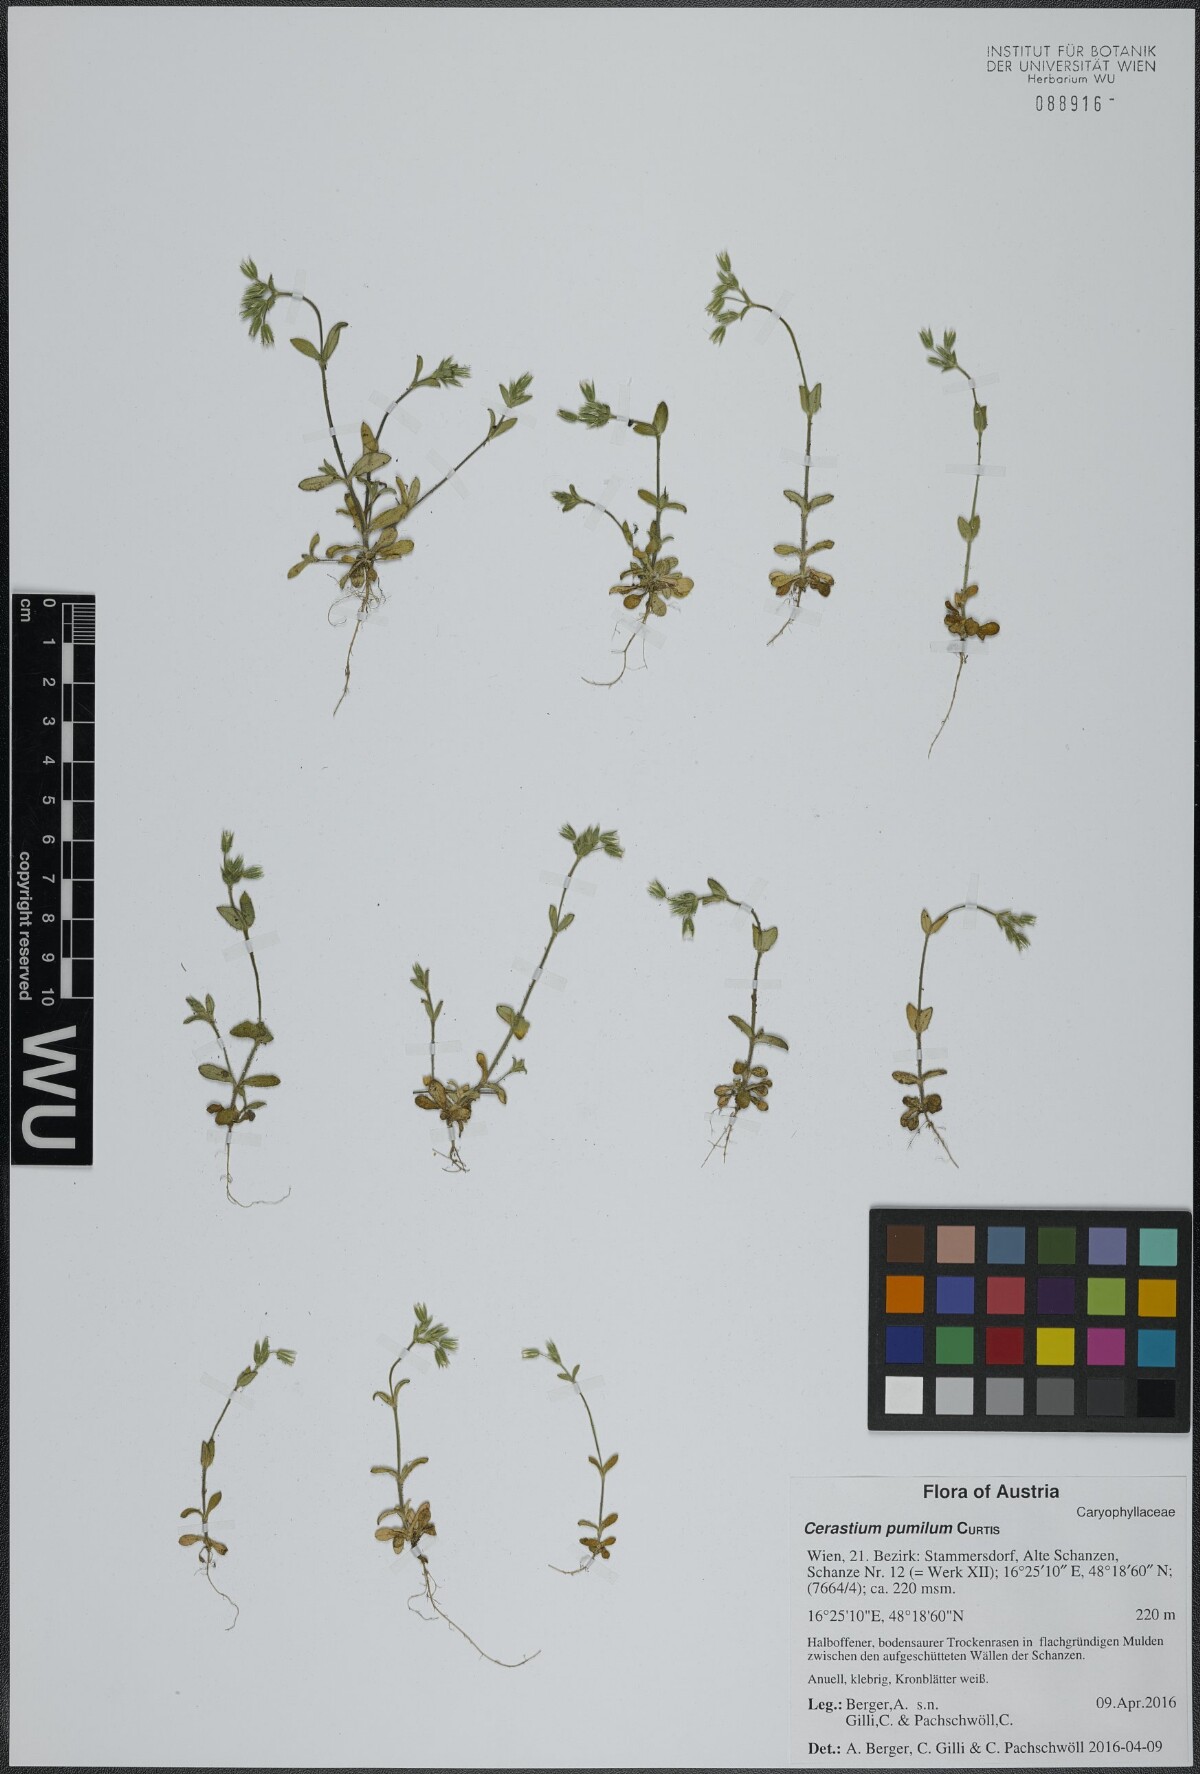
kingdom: Plantae
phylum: Tracheophyta
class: Magnoliopsida
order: Caryophyllales
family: Caryophyllaceae
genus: Cerastium
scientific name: Cerastium pumilum
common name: Dwarf mouse-ear
